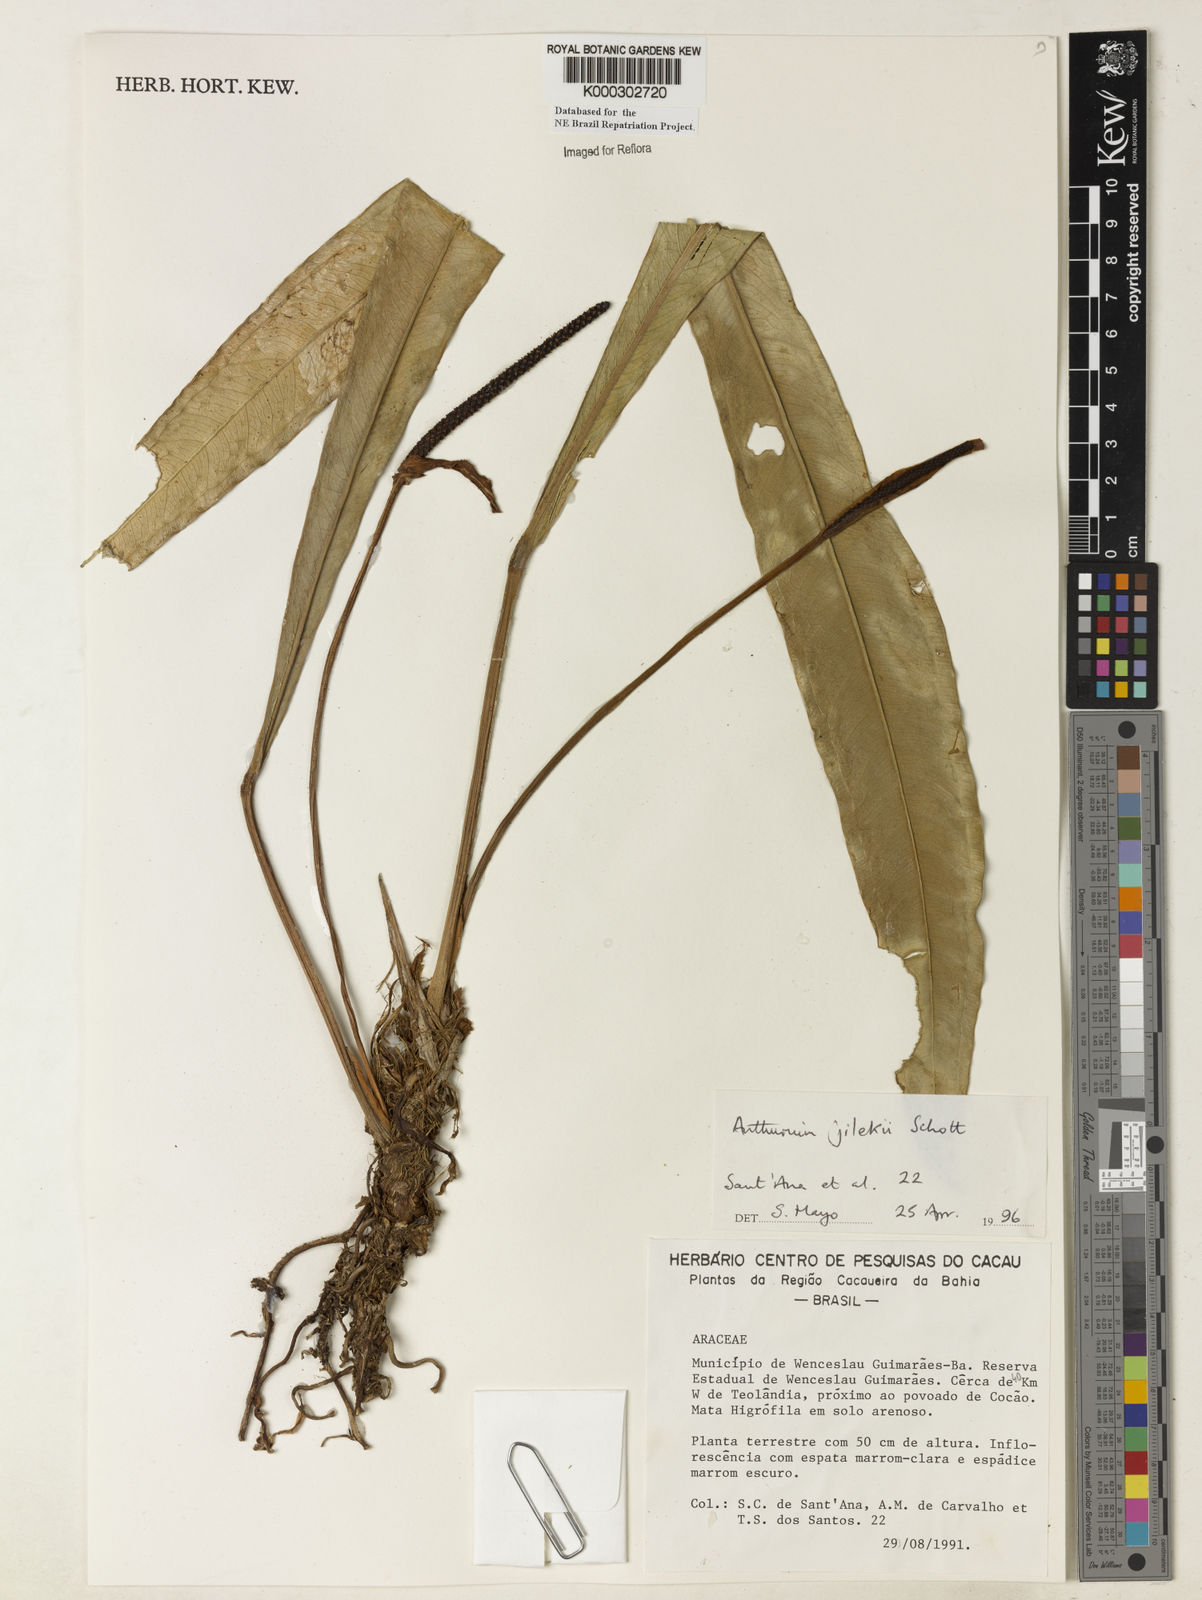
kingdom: Plantae
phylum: Tracheophyta
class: Liliopsida
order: Alismatales
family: Araceae
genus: Anthurium
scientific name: Anthurium jilekii
